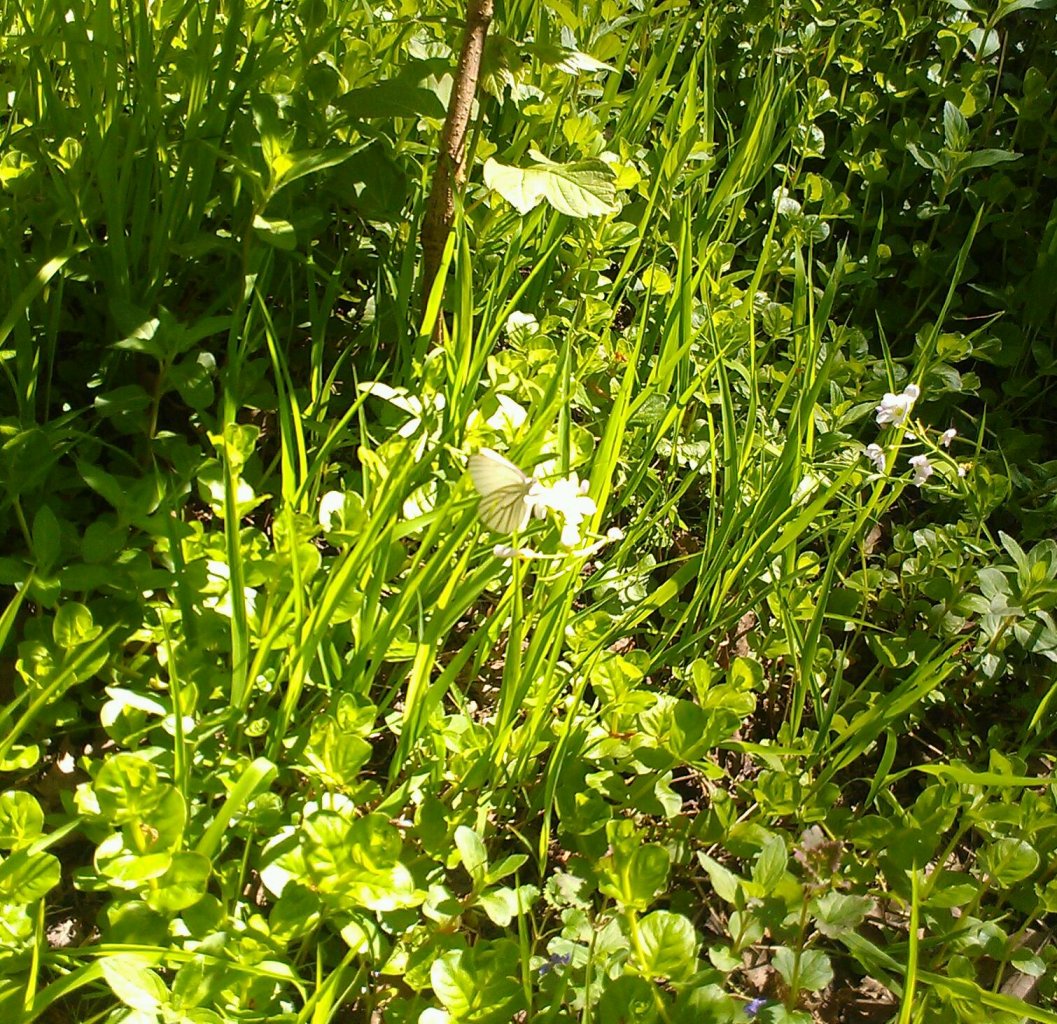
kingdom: Animalia
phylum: Arthropoda
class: Insecta
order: Lepidoptera
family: Pieridae
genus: Pieris
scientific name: Pieris oleracea
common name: Mustard White
